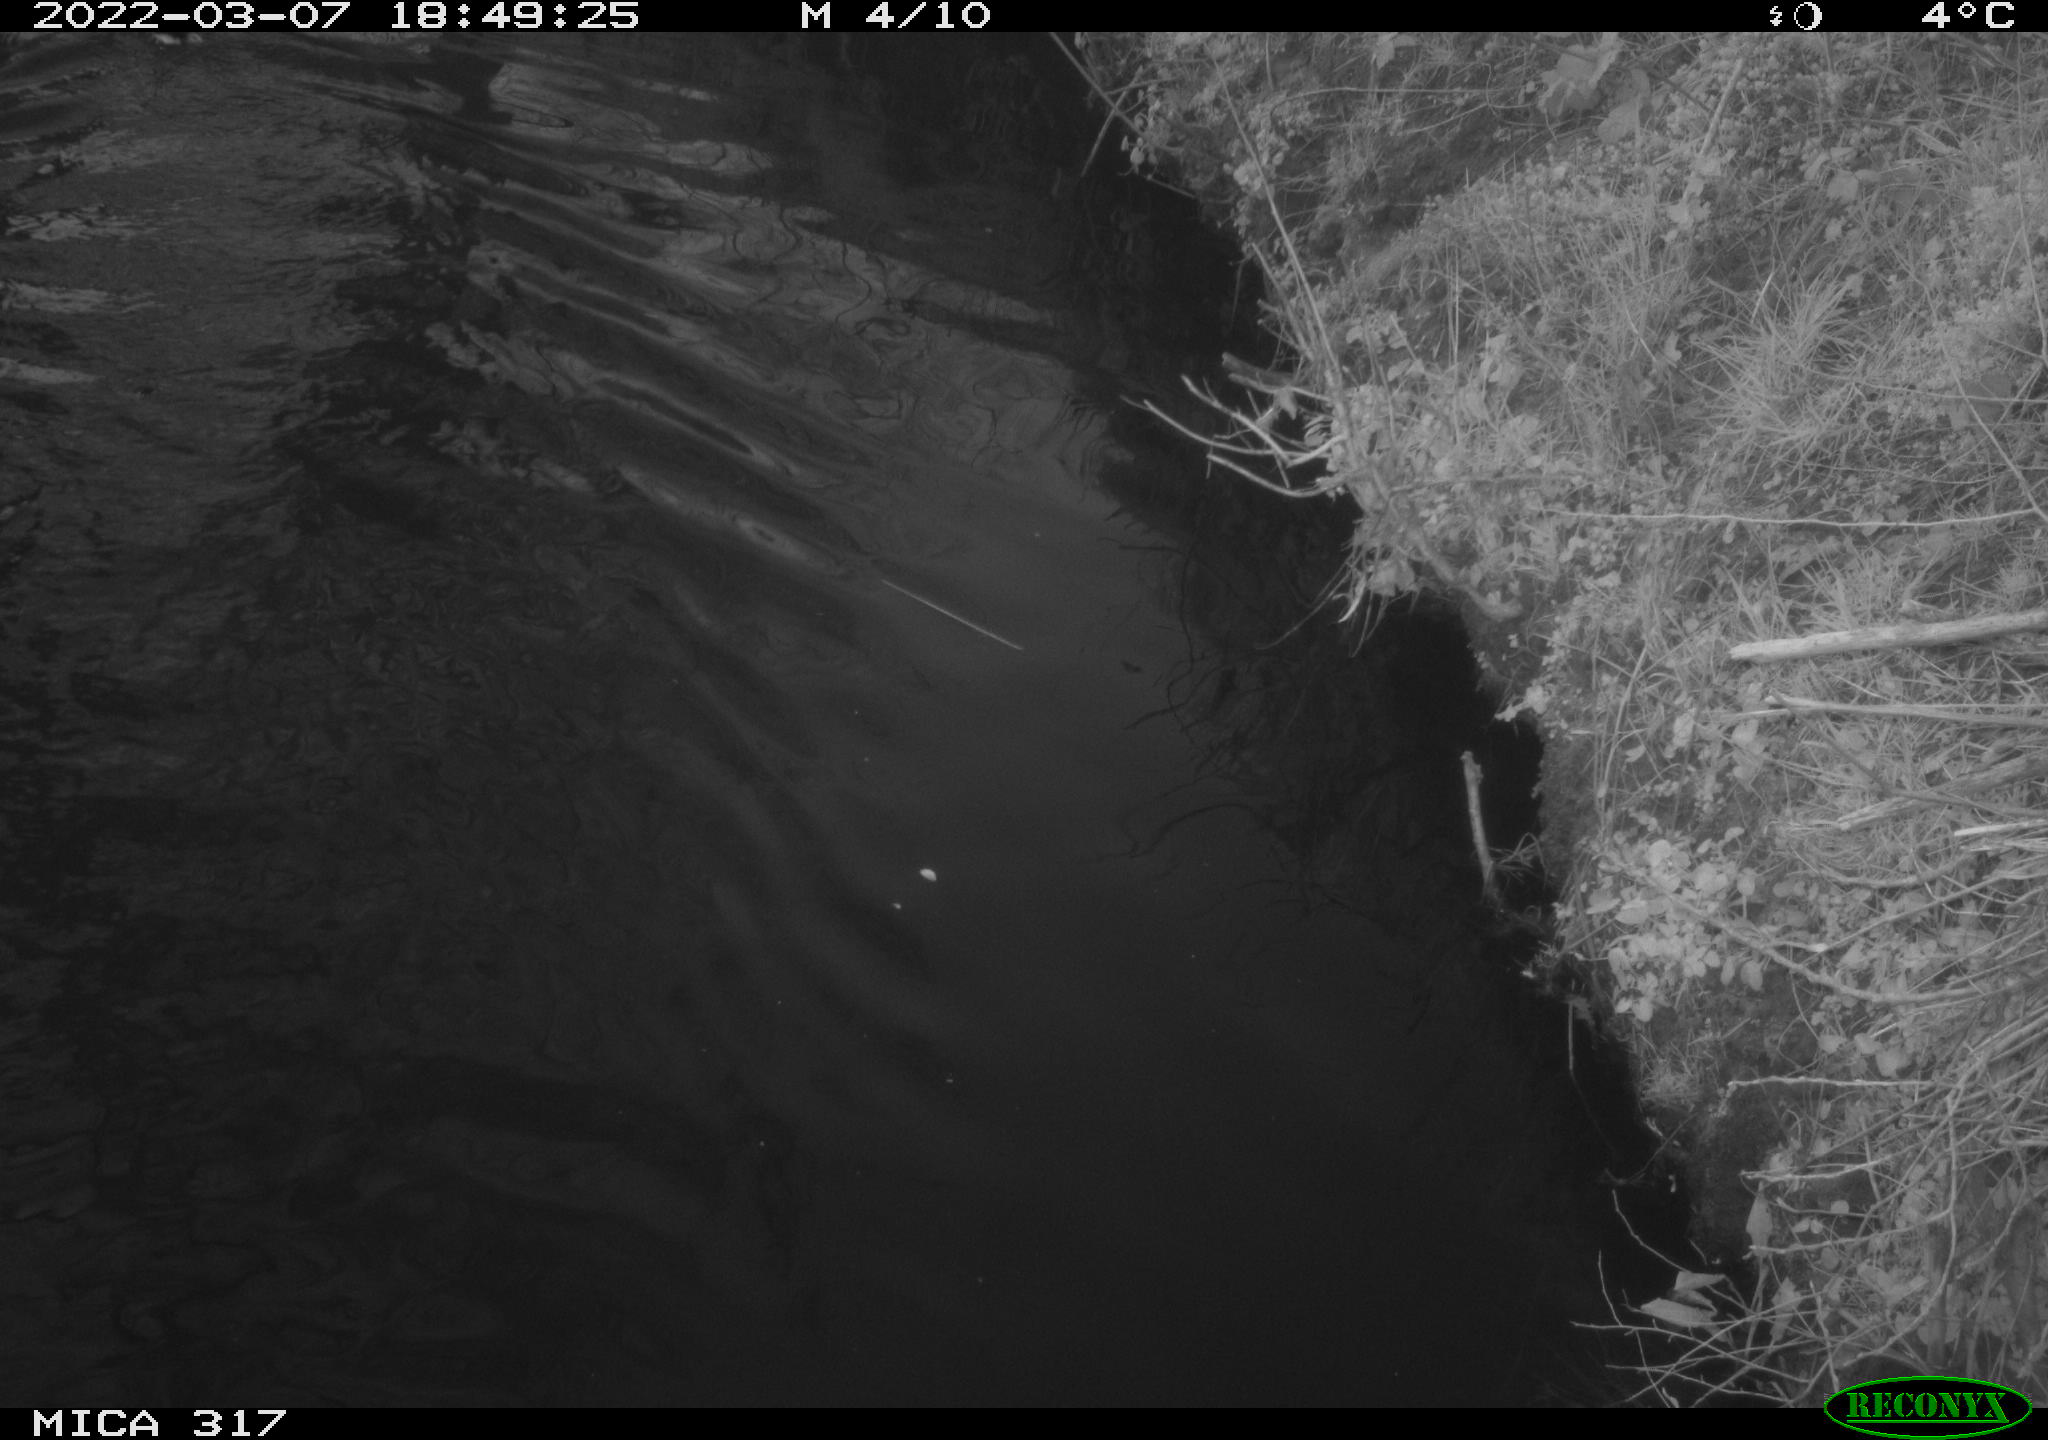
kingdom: Animalia
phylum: Chordata
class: Aves
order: Anseriformes
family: Anatidae
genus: Anas
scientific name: Anas platyrhynchos
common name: Mallard
